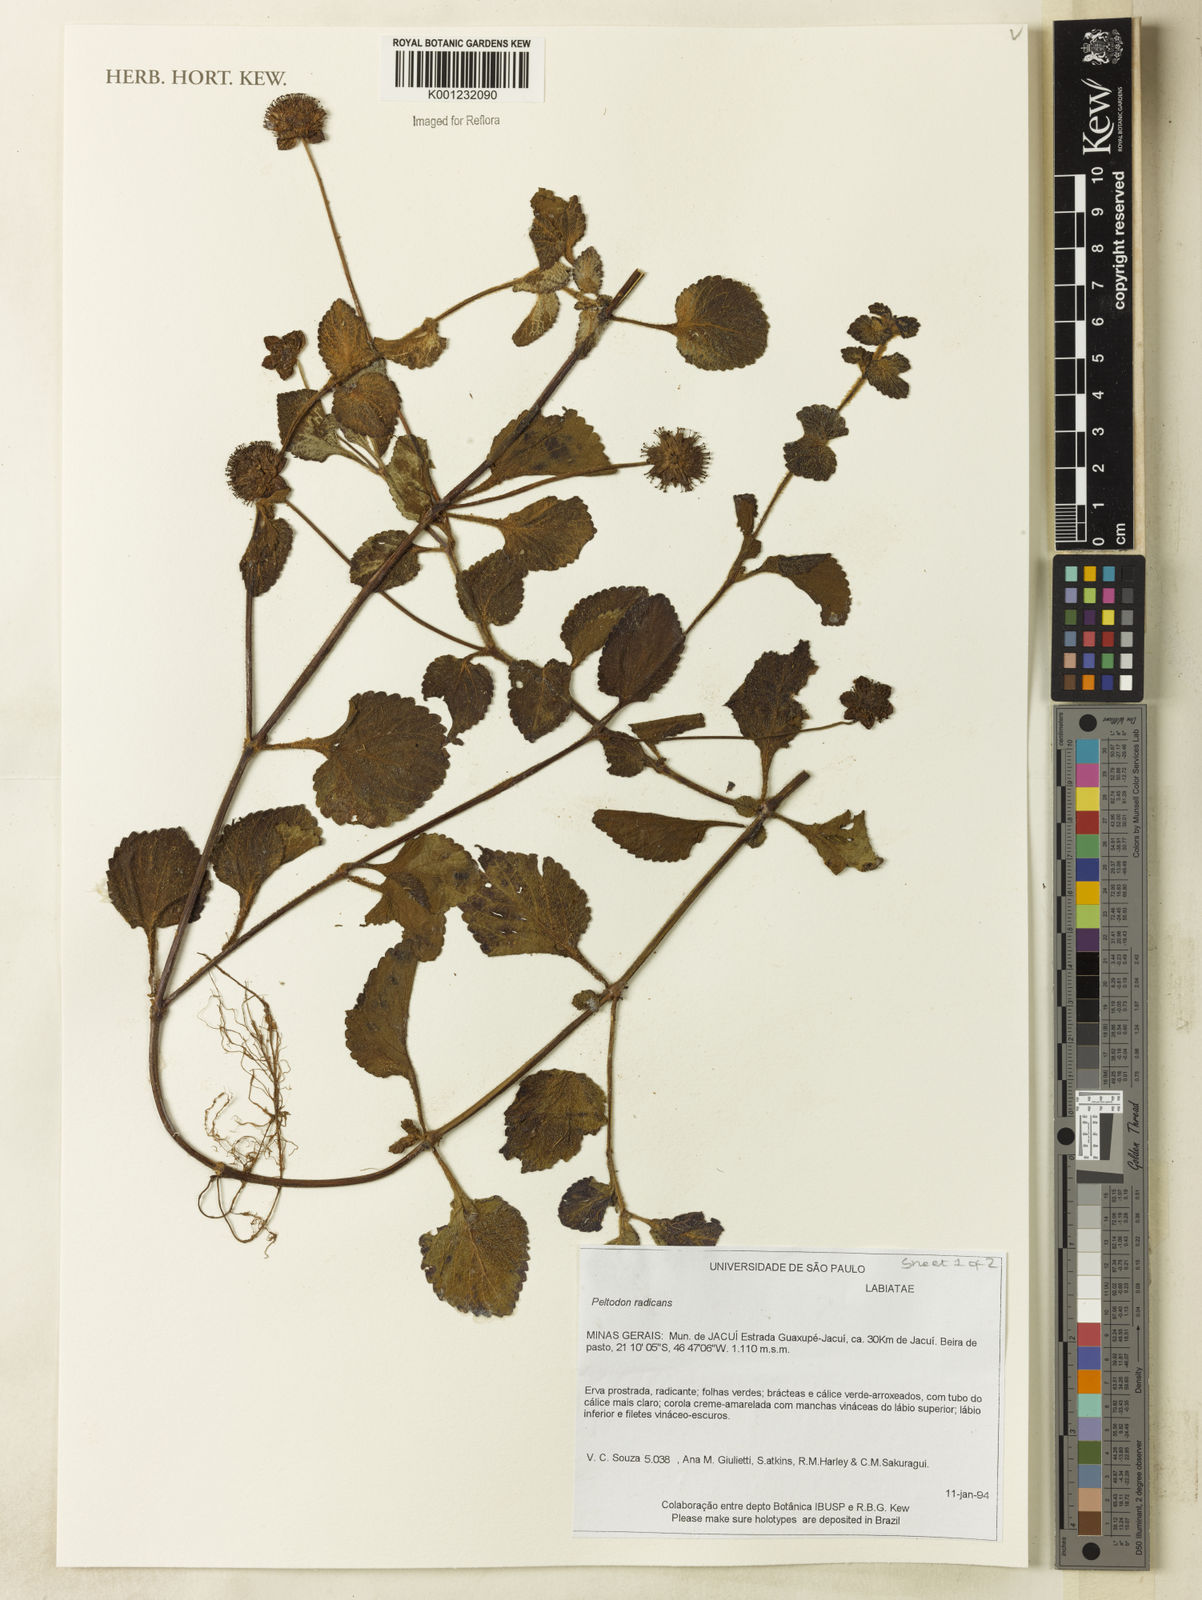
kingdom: Plantae
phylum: Tracheophyta
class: Magnoliopsida
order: Lamiales
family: Lamiaceae
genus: Hyptis
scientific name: Hyptis radicans
